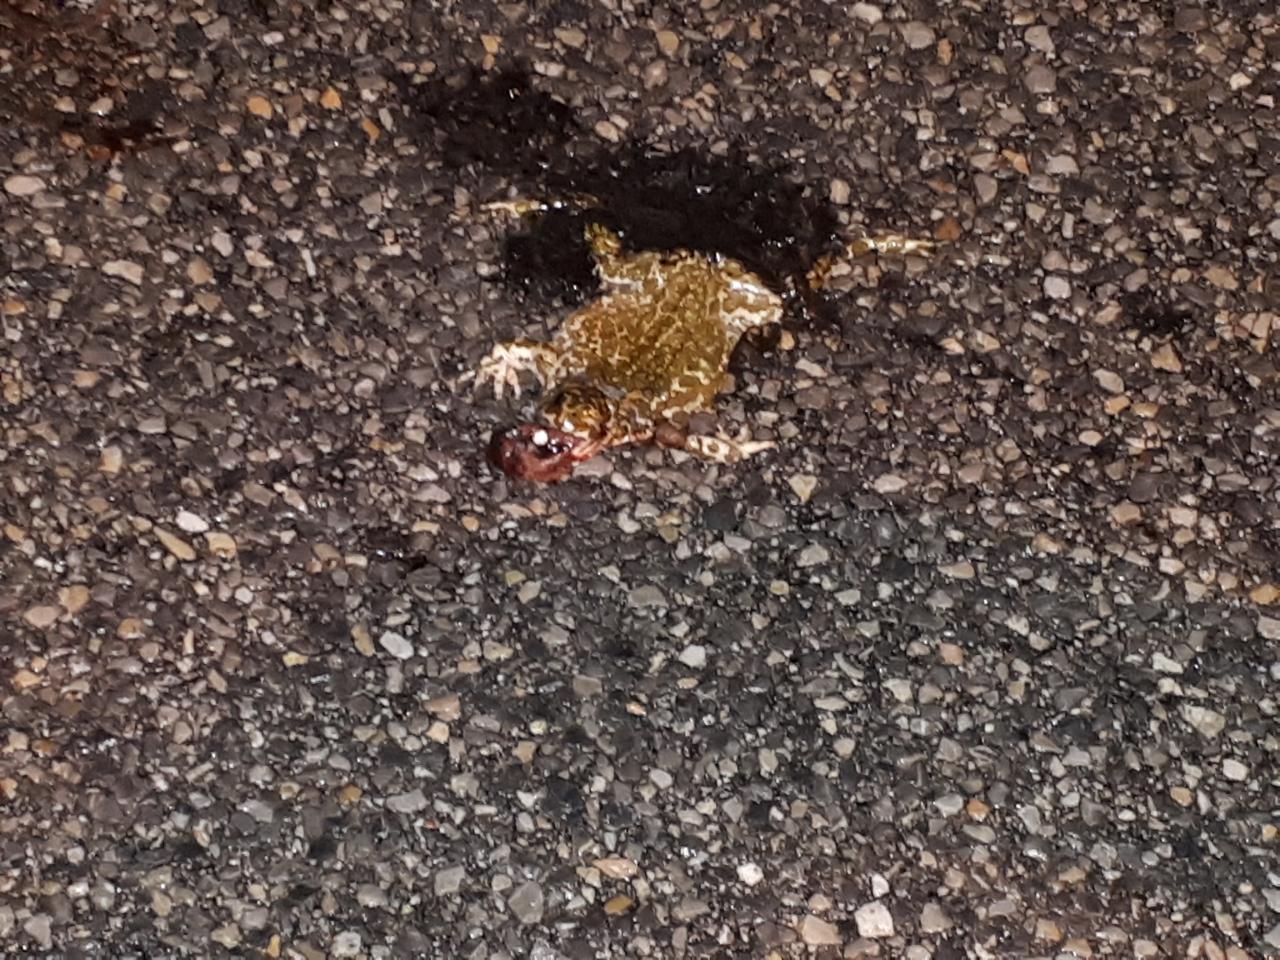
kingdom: Animalia
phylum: Chordata
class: Amphibia
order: Anura
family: Bufonidae
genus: Bufotes
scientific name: Bufotes viridis
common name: European green toad
